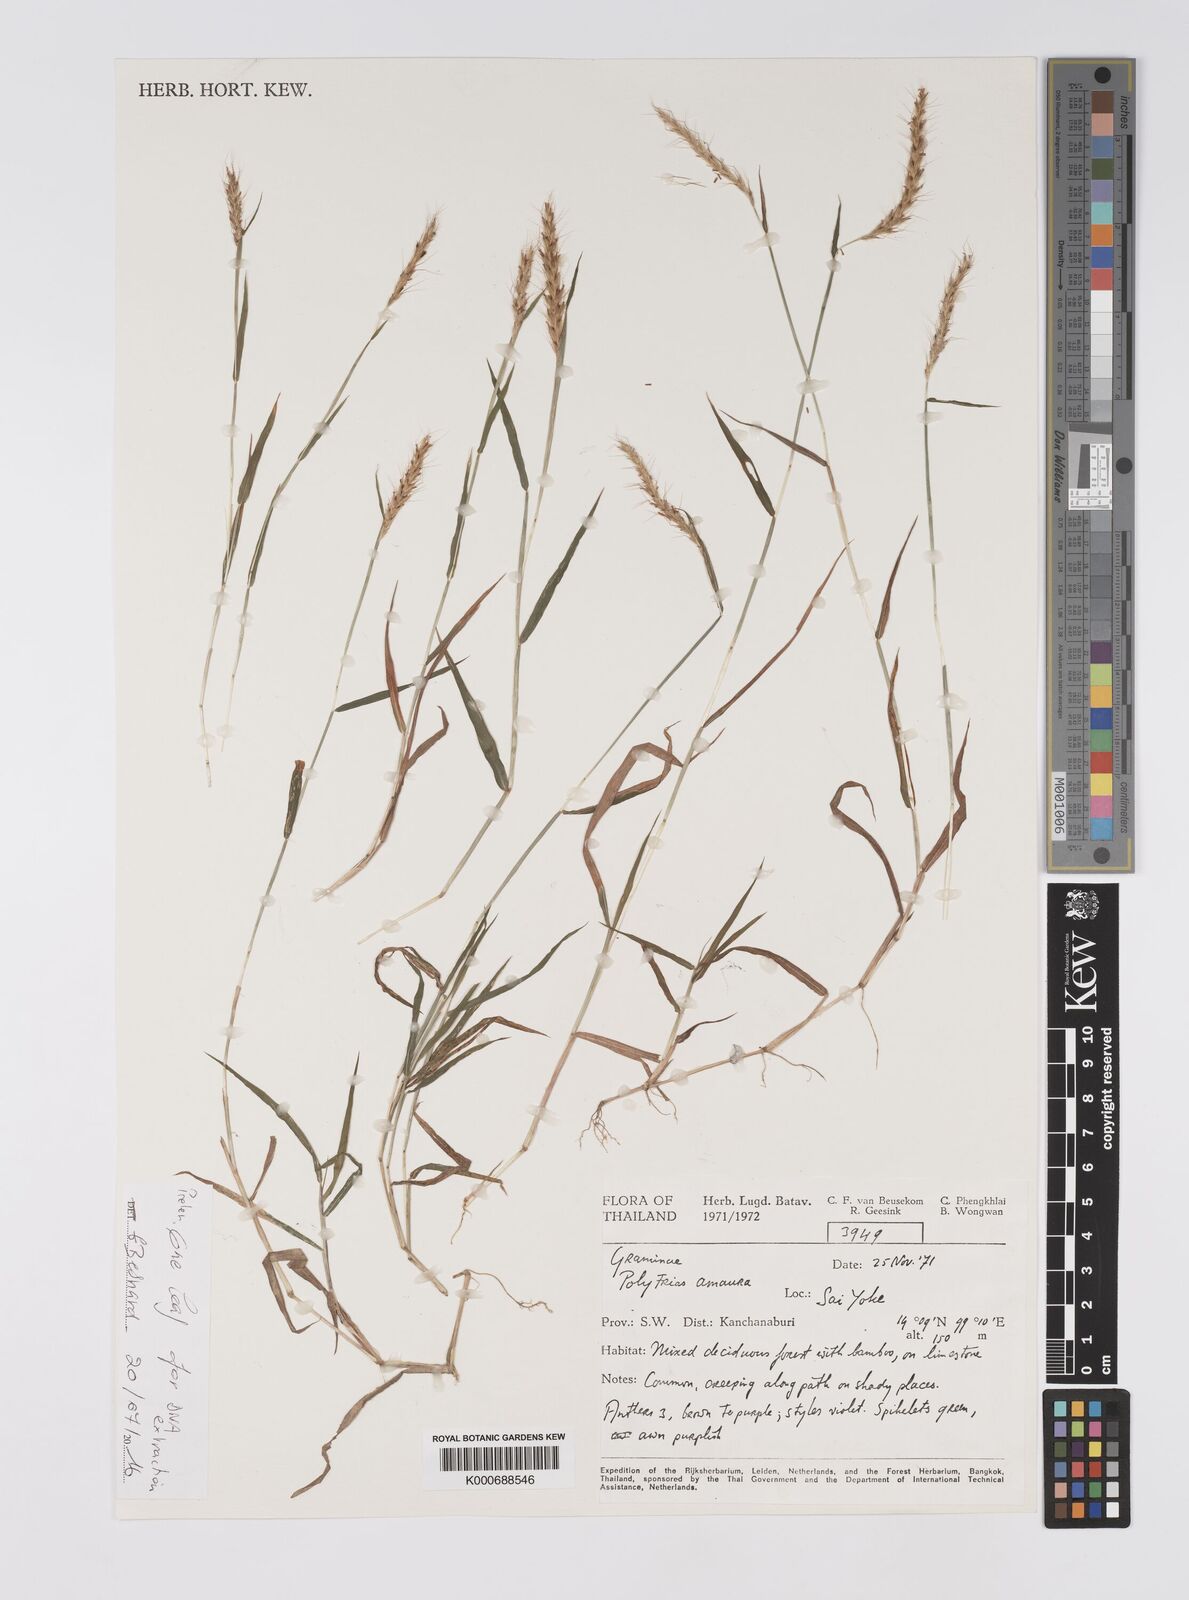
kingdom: Plantae
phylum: Tracheophyta
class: Liliopsida
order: Poales
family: Poaceae
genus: Polytrias
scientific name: Polytrias indica
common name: Indian murainagrass
